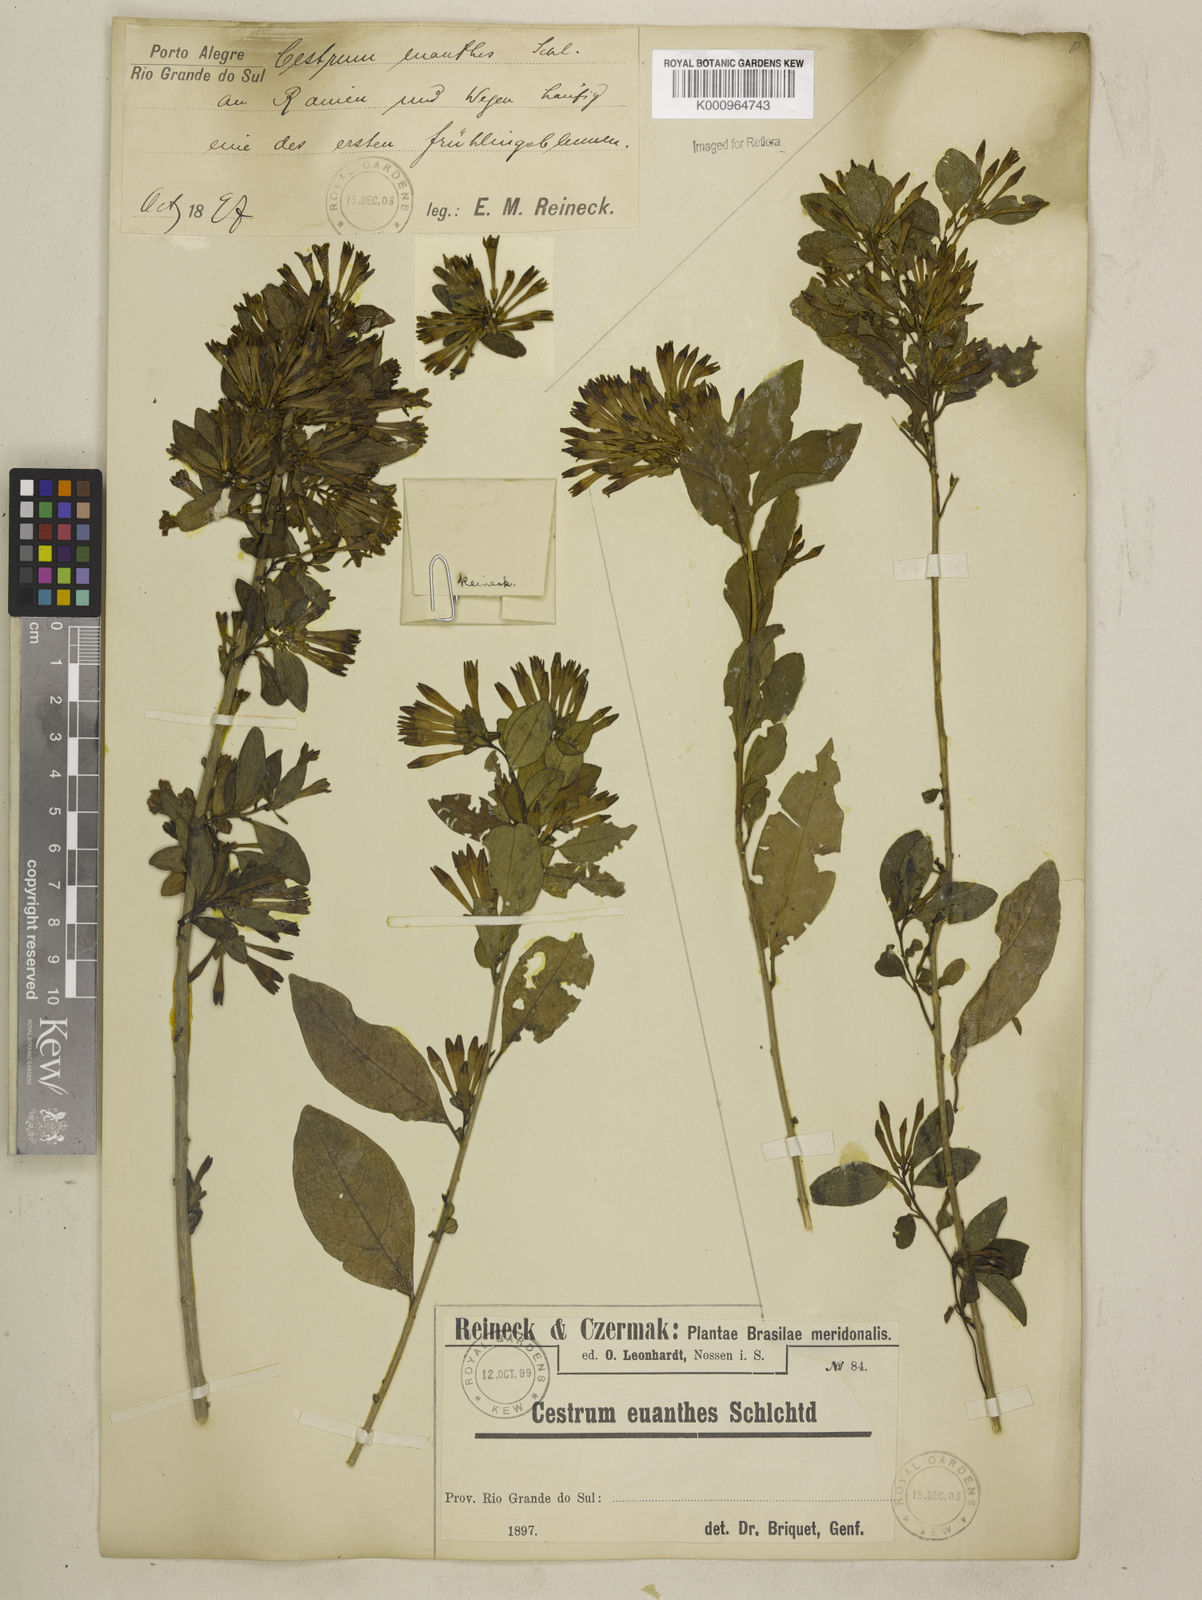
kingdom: Plantae
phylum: Tracheophyta
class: Magnoliopsida
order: Solanales
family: Solanaceae
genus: Cestrum
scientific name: Cestrum euanthes
